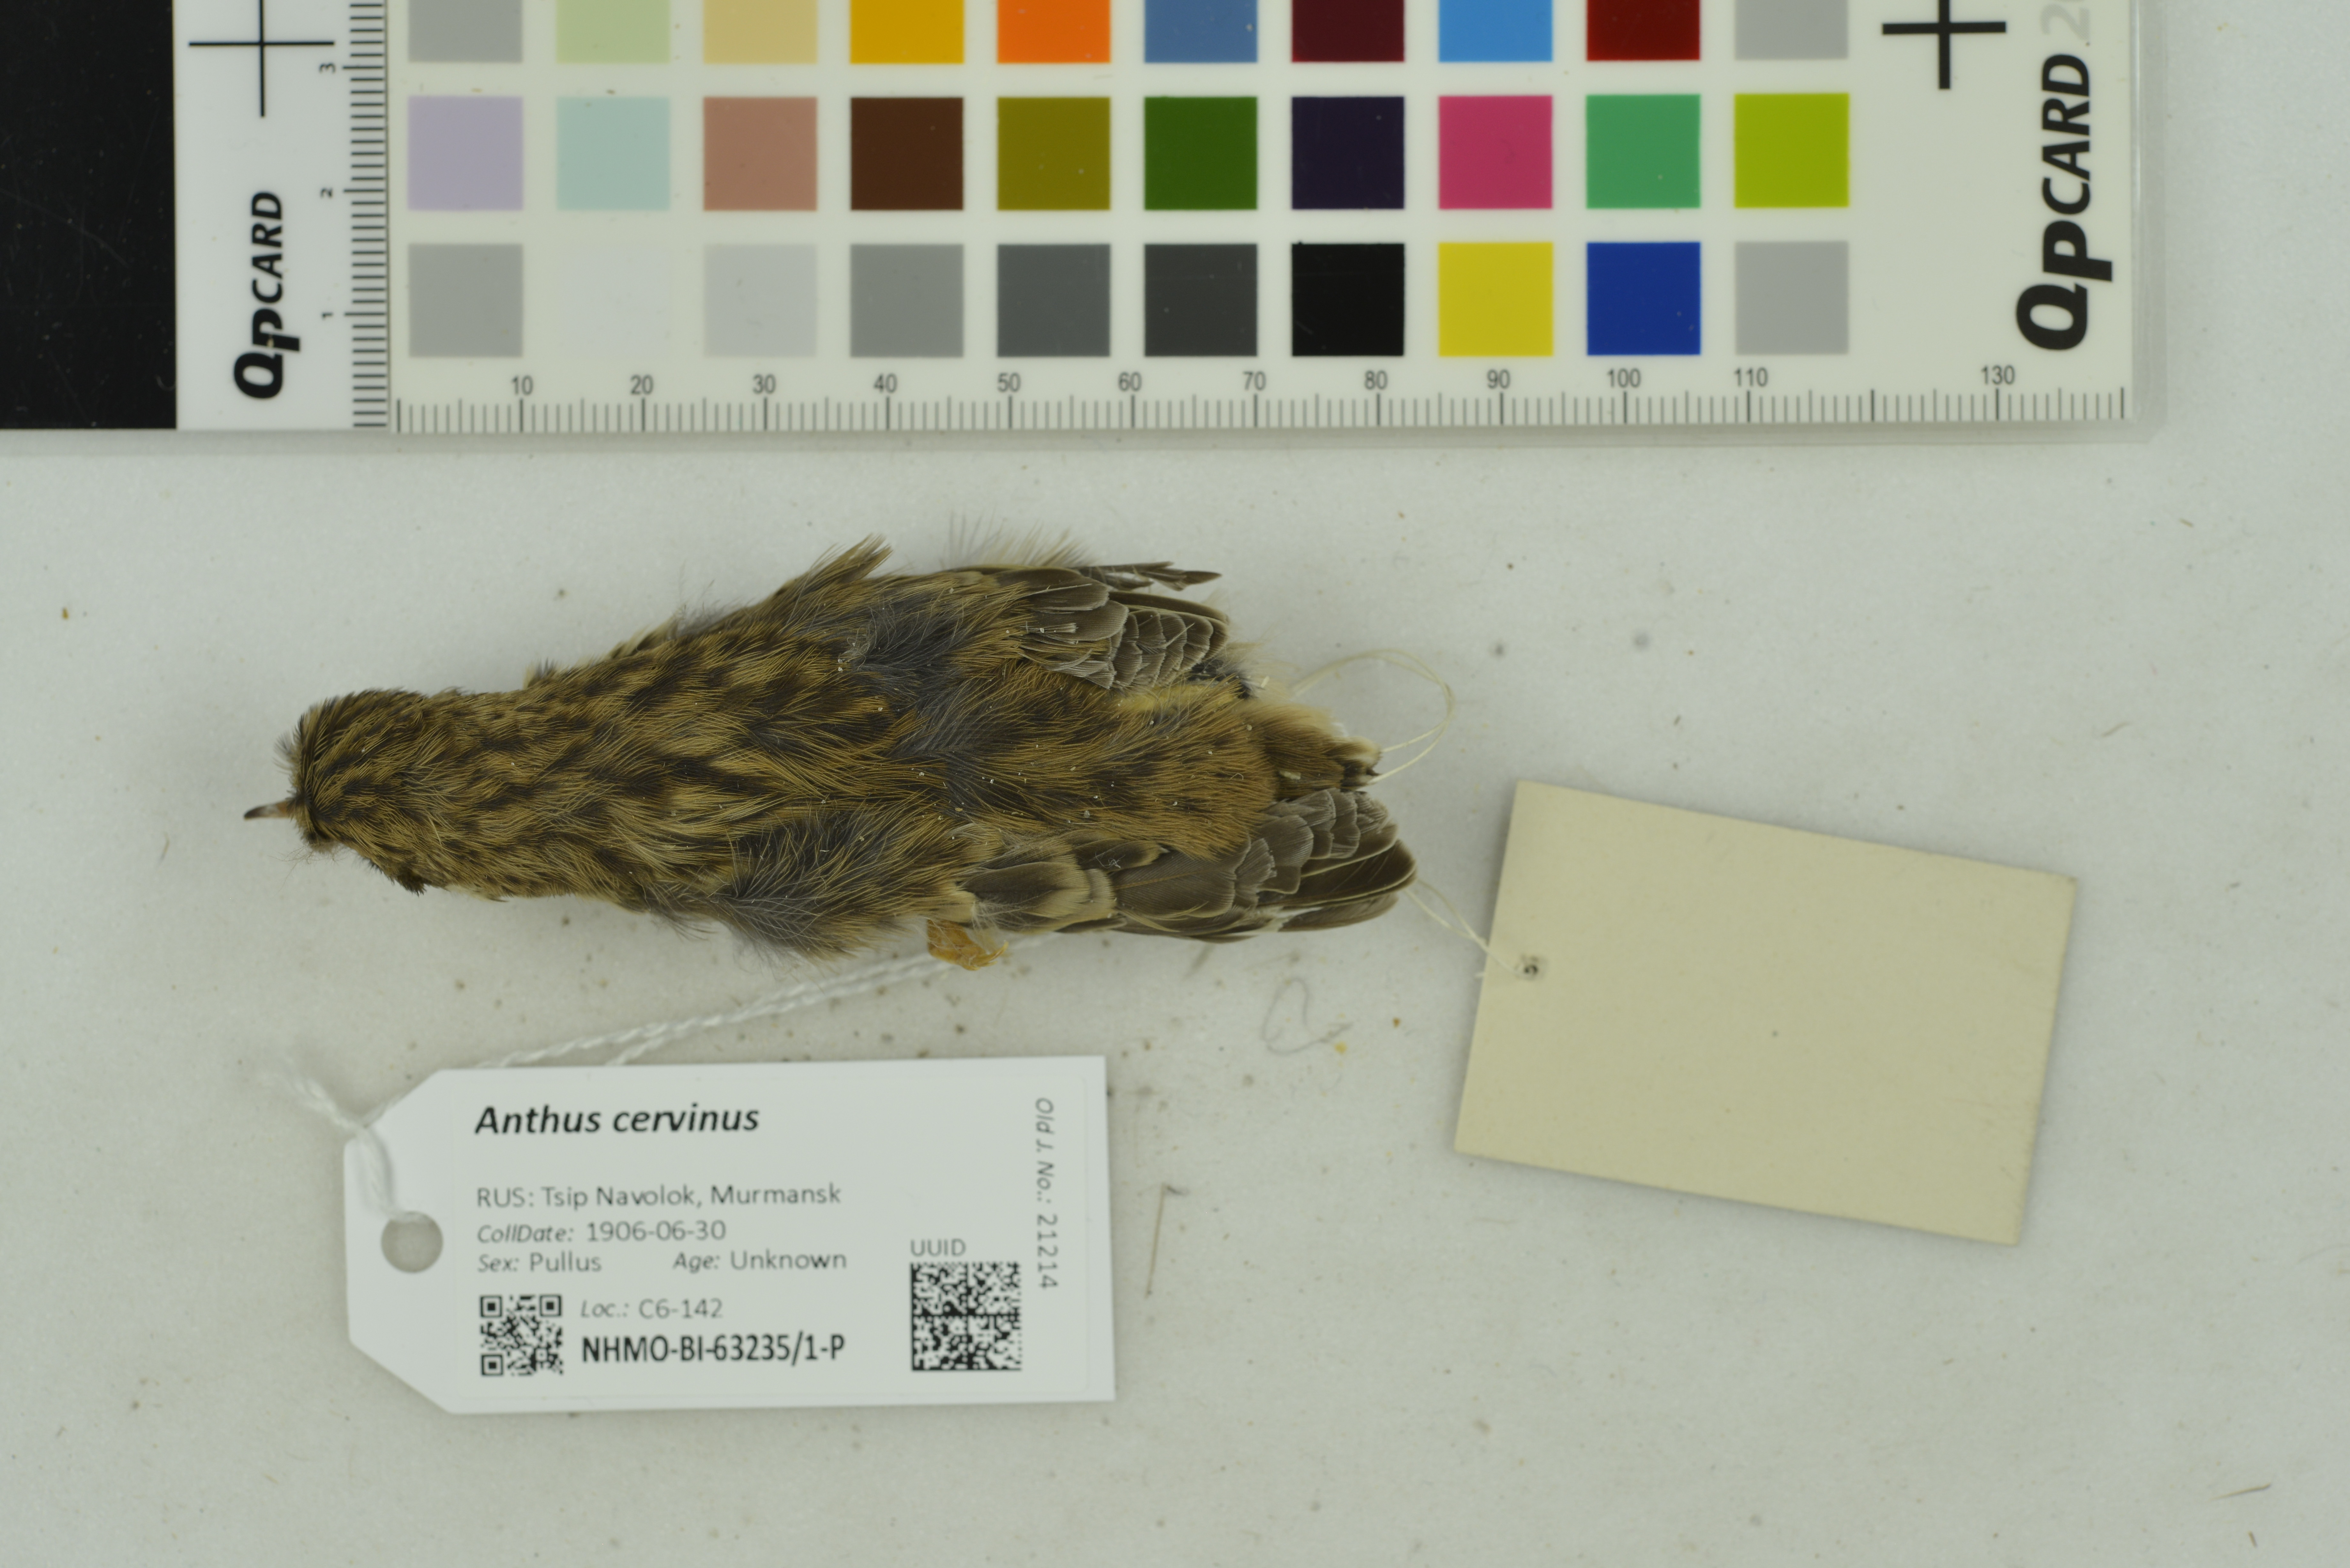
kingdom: Animalia
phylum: Chordata
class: Aves
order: Passeriformes
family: Motacillidae
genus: Anthus
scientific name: Anthus cervinus
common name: Red-throated pipit
